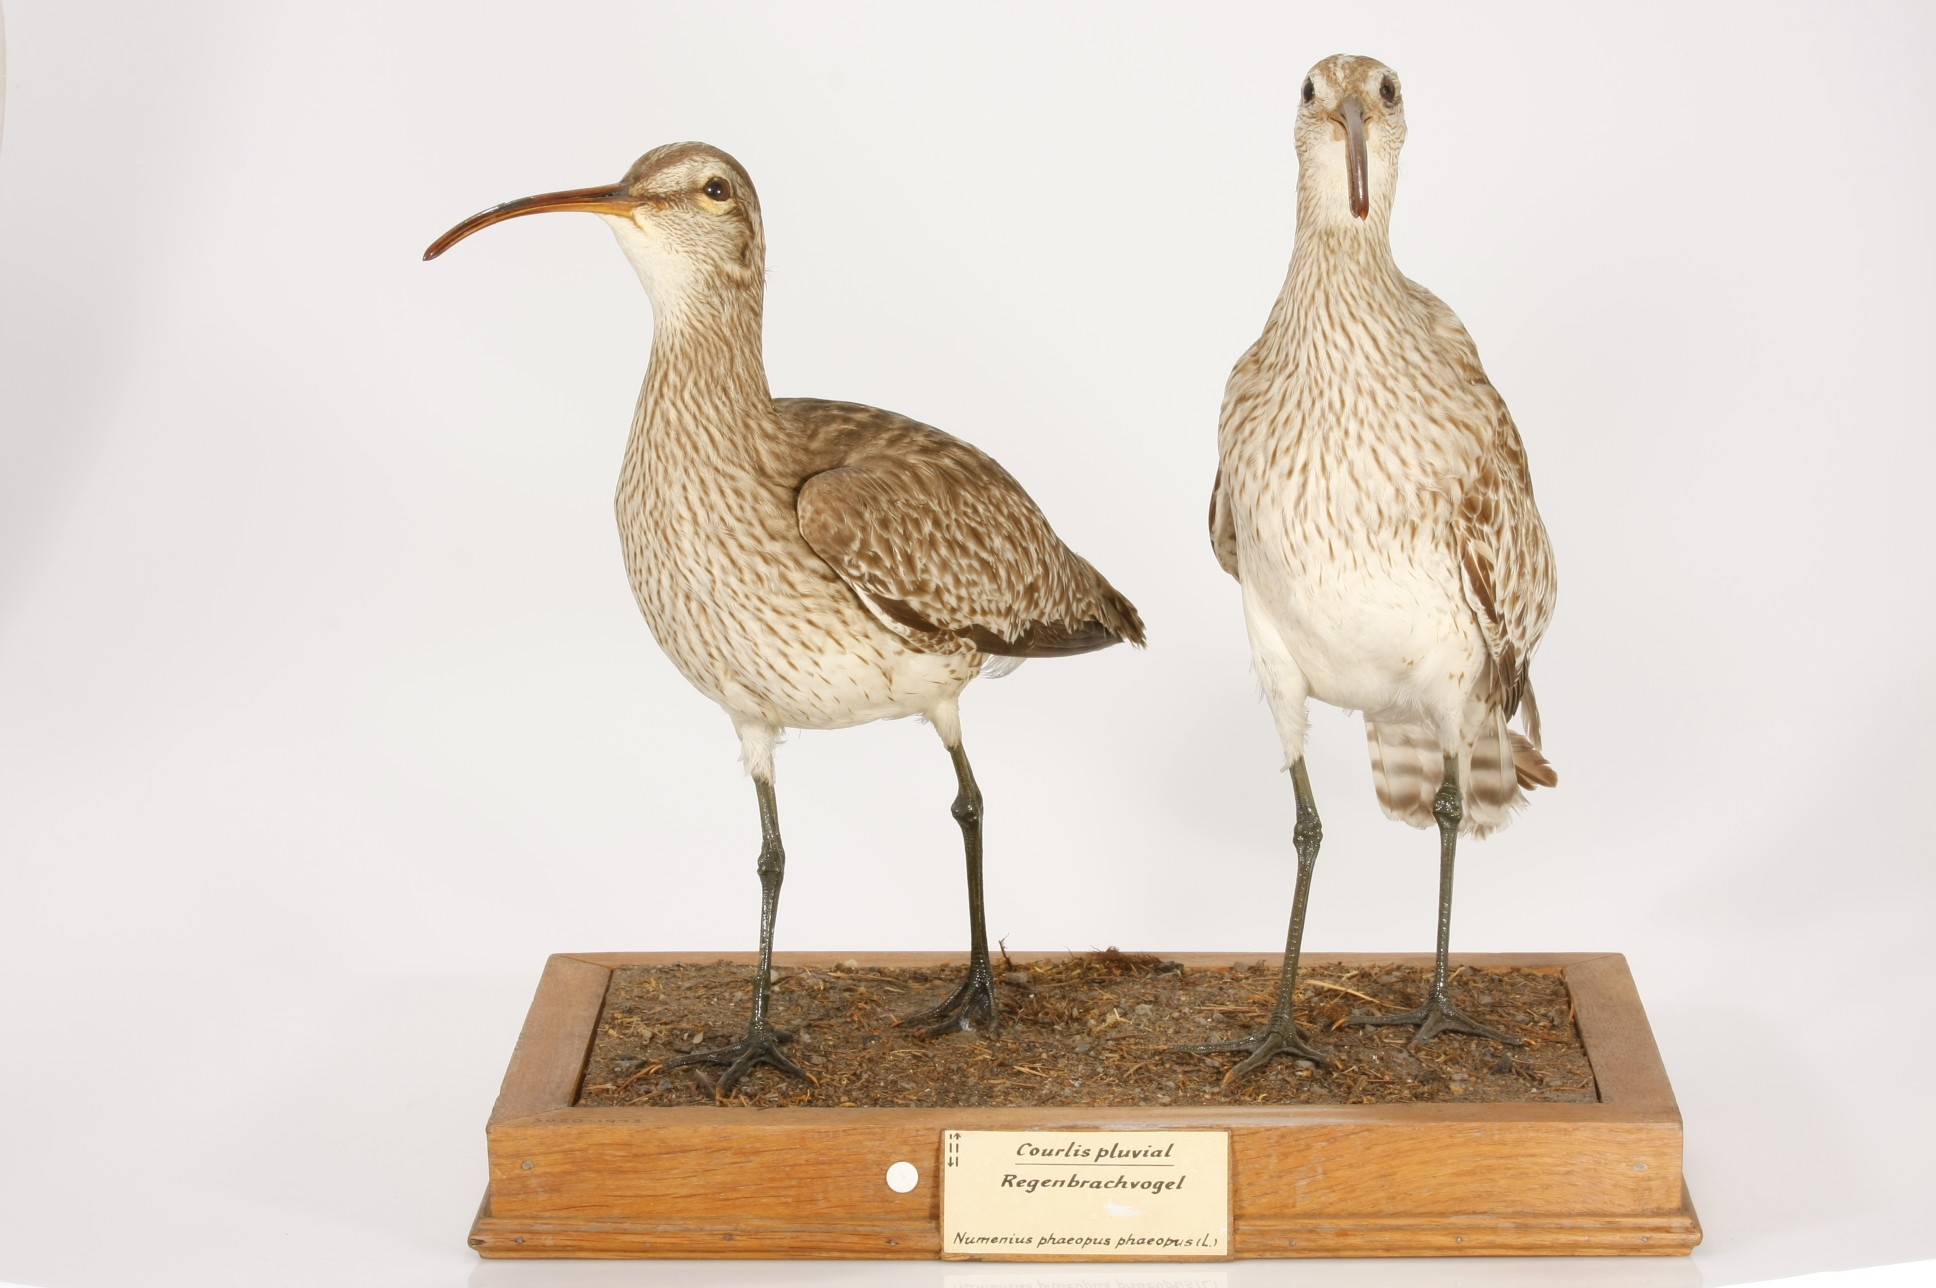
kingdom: Animalia
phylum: Chordata
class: Aves
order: Charadriiformes
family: Scolopacidae
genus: Numenius
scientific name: Numenius phaeopus
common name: Whimbrel
